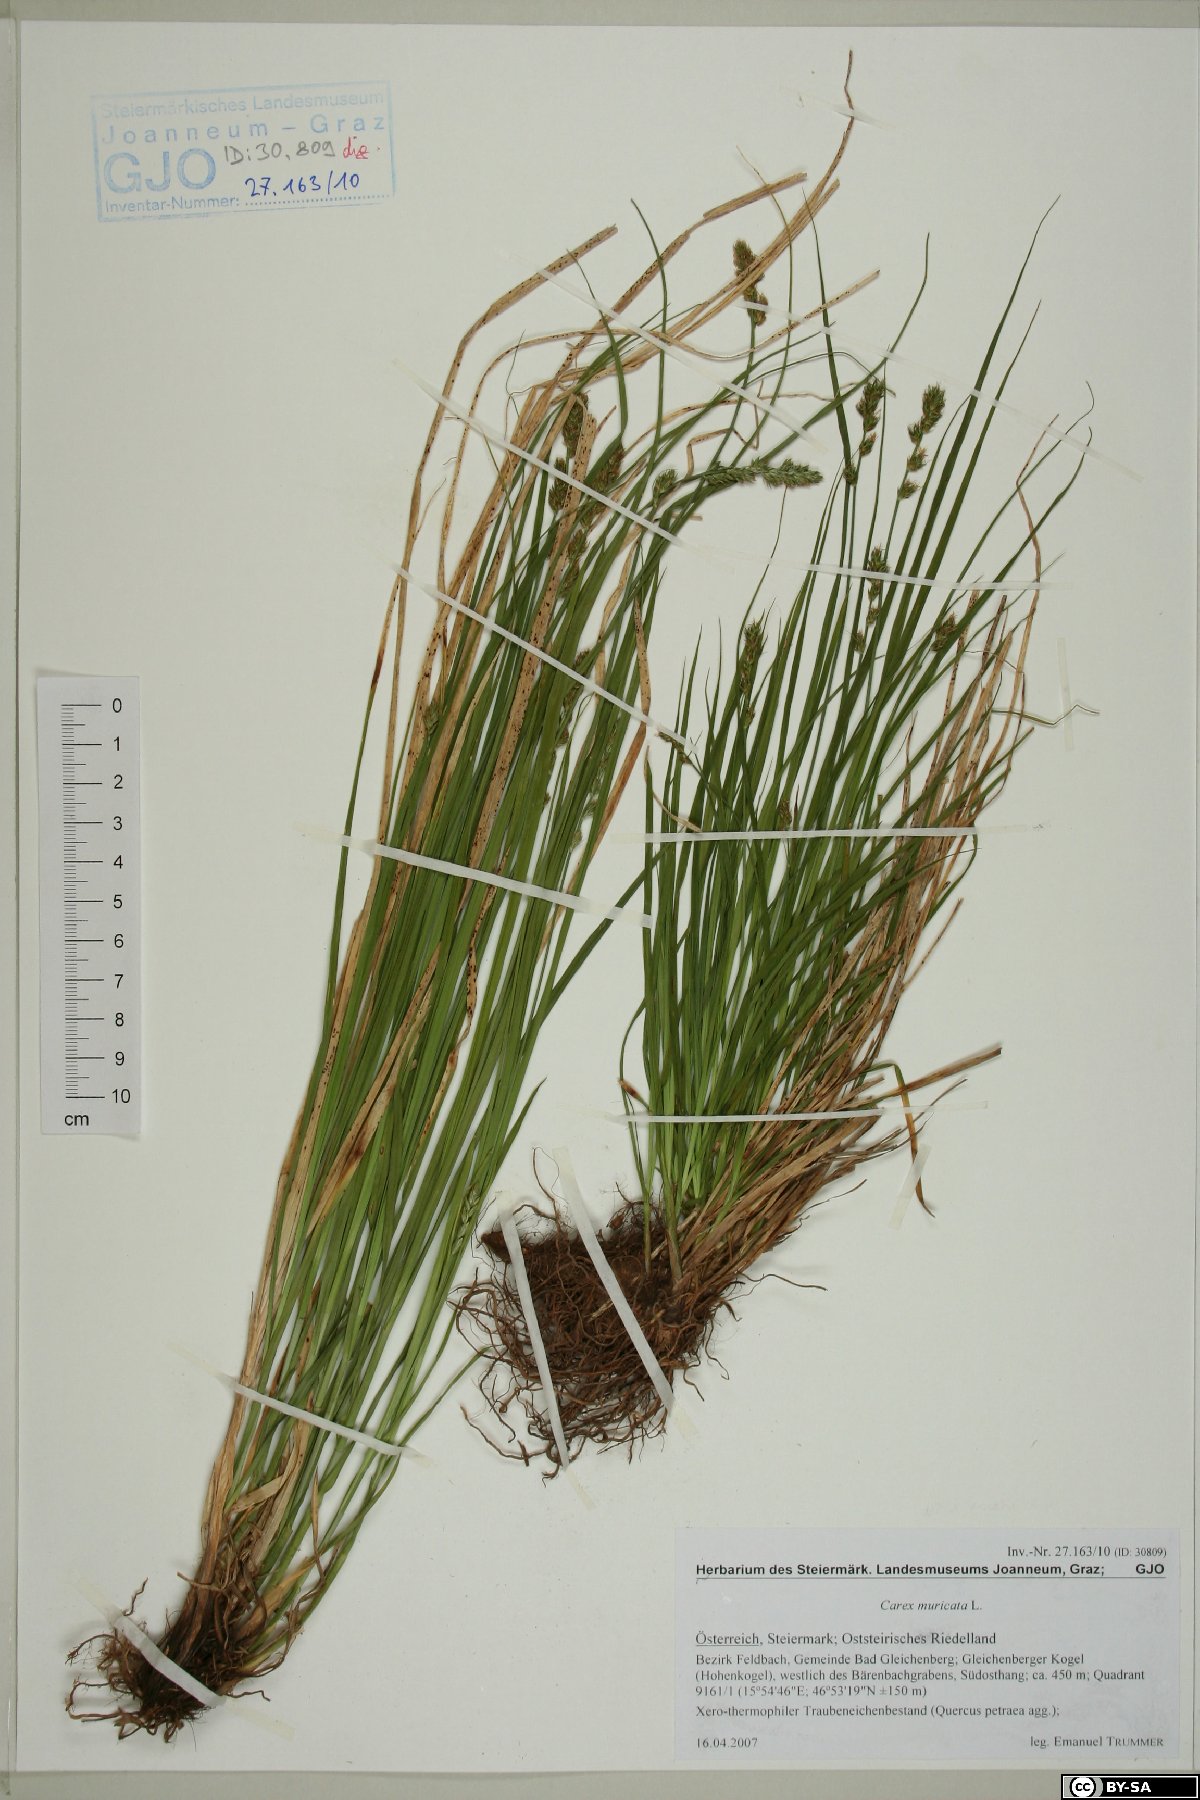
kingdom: Plantae
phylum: Tracheophyta
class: Liliopsida
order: Poales
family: Cyperaceae
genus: Carex
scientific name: Carex muricata
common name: Rough sedge
